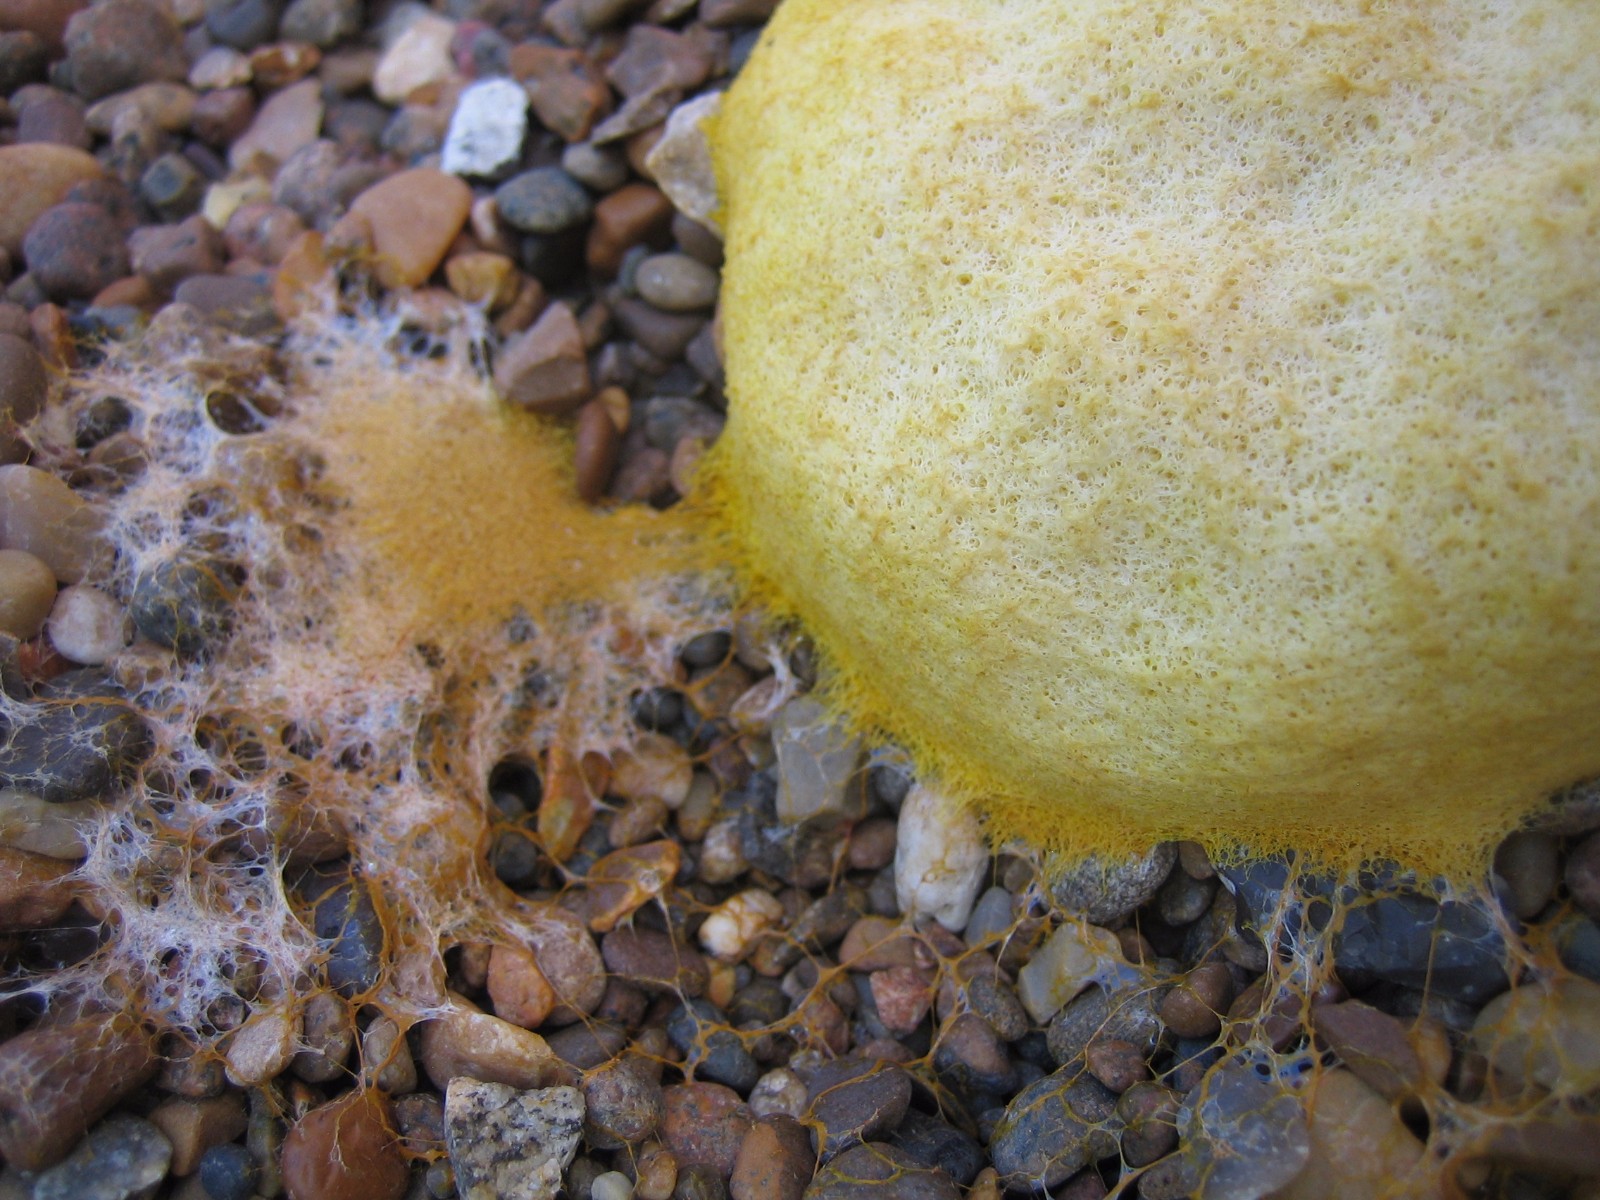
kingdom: Protozoa
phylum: Mycetozoa
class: Myxomycetes
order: Physarales
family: Physaraceae
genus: Fuligo
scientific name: Fuligo septica
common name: gul troldsmør
